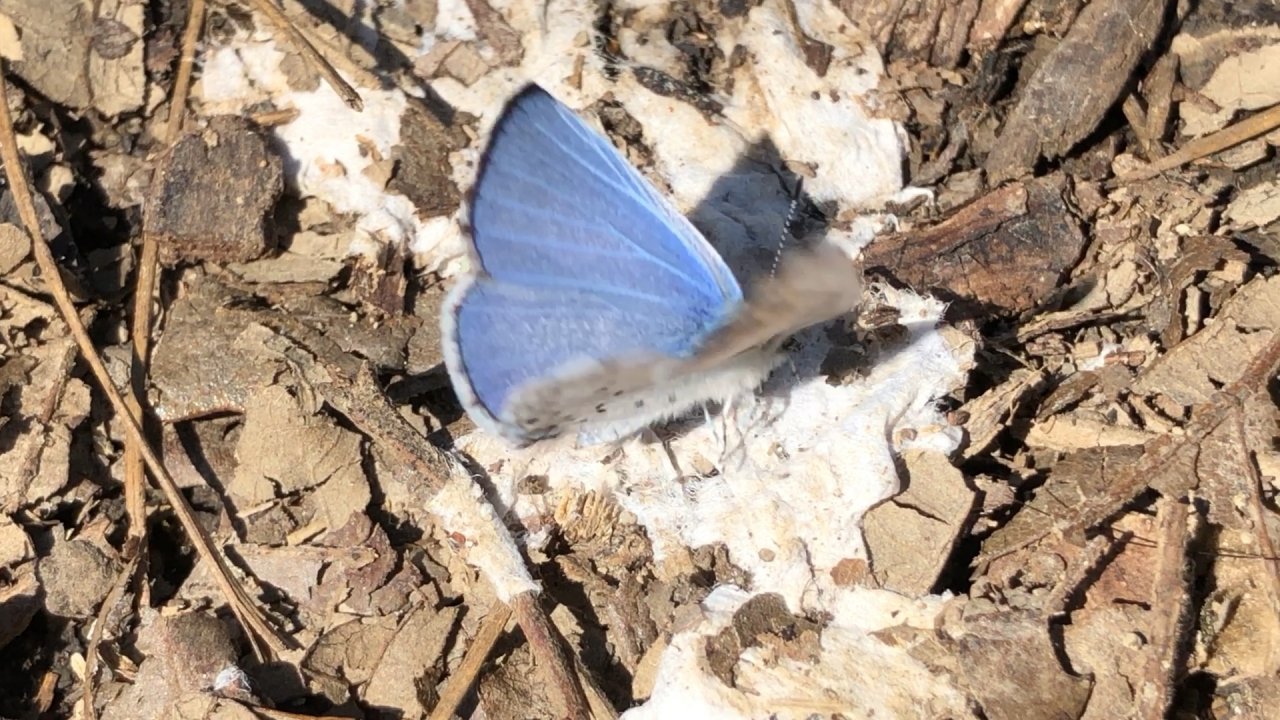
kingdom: Animalia
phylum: Arthropoda
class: Insecta
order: Lepidoptera
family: Lycaenidae
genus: Cyaniris
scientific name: Cyaniris neglecta
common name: Summer Azure
